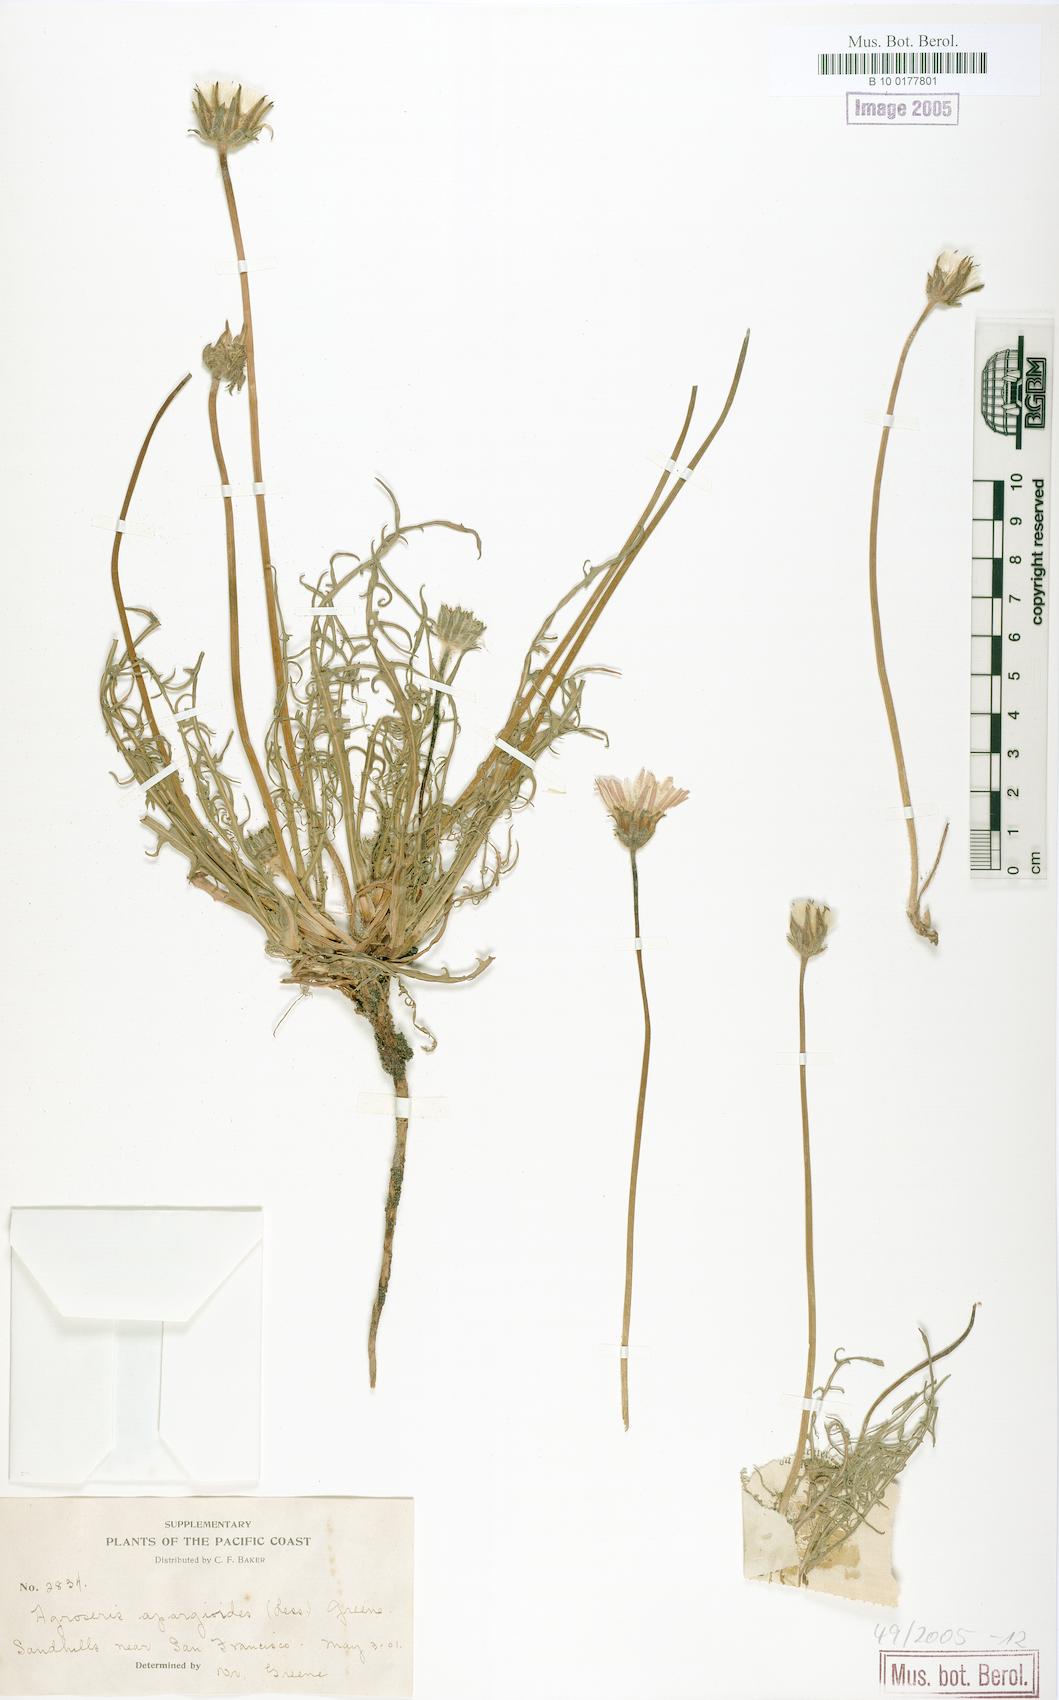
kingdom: Plantae
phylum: Tracheophyta
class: Magnoliopsida
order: Asterales
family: Asteraceae
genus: Agoseris
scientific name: Agoseris apargioides
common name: Point reyes agoseris
